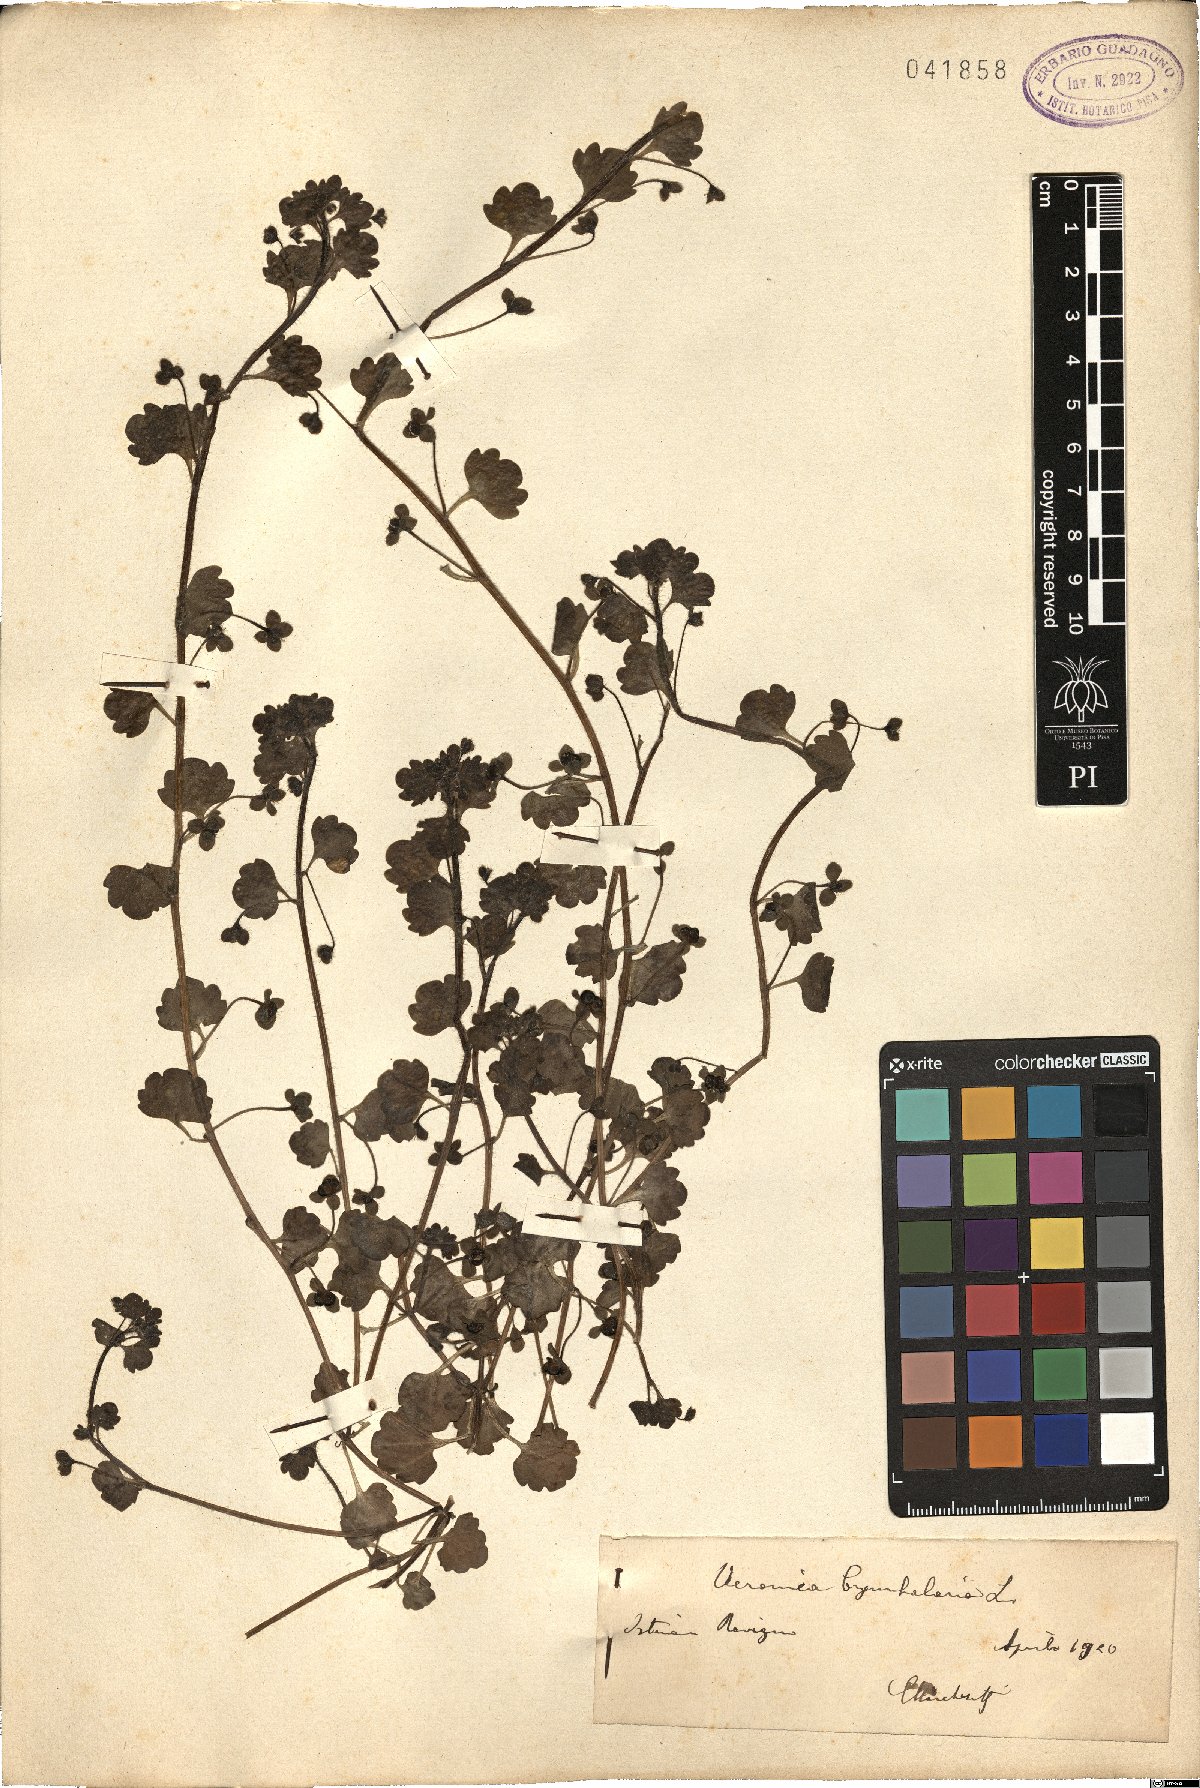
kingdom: Plantae
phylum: Tracheophyta
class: Magnoliopsida
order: Lamiales
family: Plantaginaceae
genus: Veronica
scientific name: Veronica cymbalaria
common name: Pale speedwell
